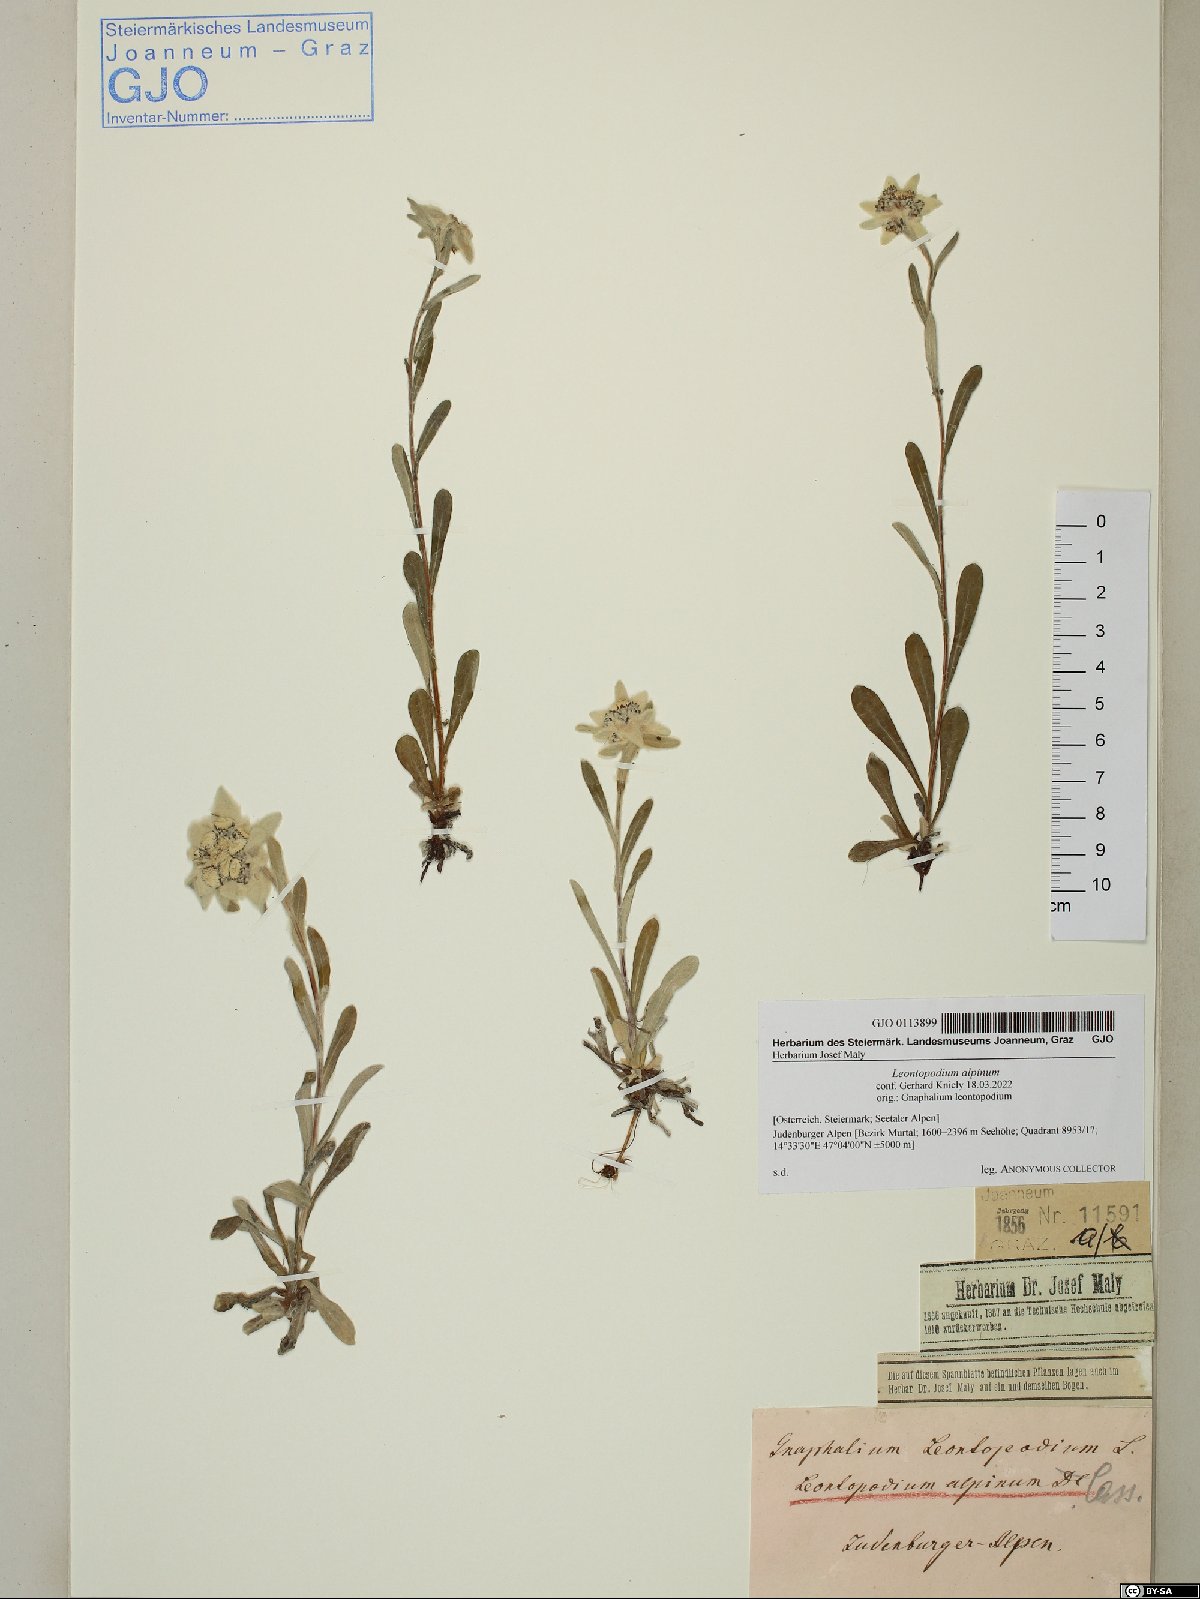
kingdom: Plantae
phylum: Tracheophyta
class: Magnoliopsida
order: Asterales
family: Asteraceae
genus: Leontopodium
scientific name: Leontopodium nivale
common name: Edelweiss
